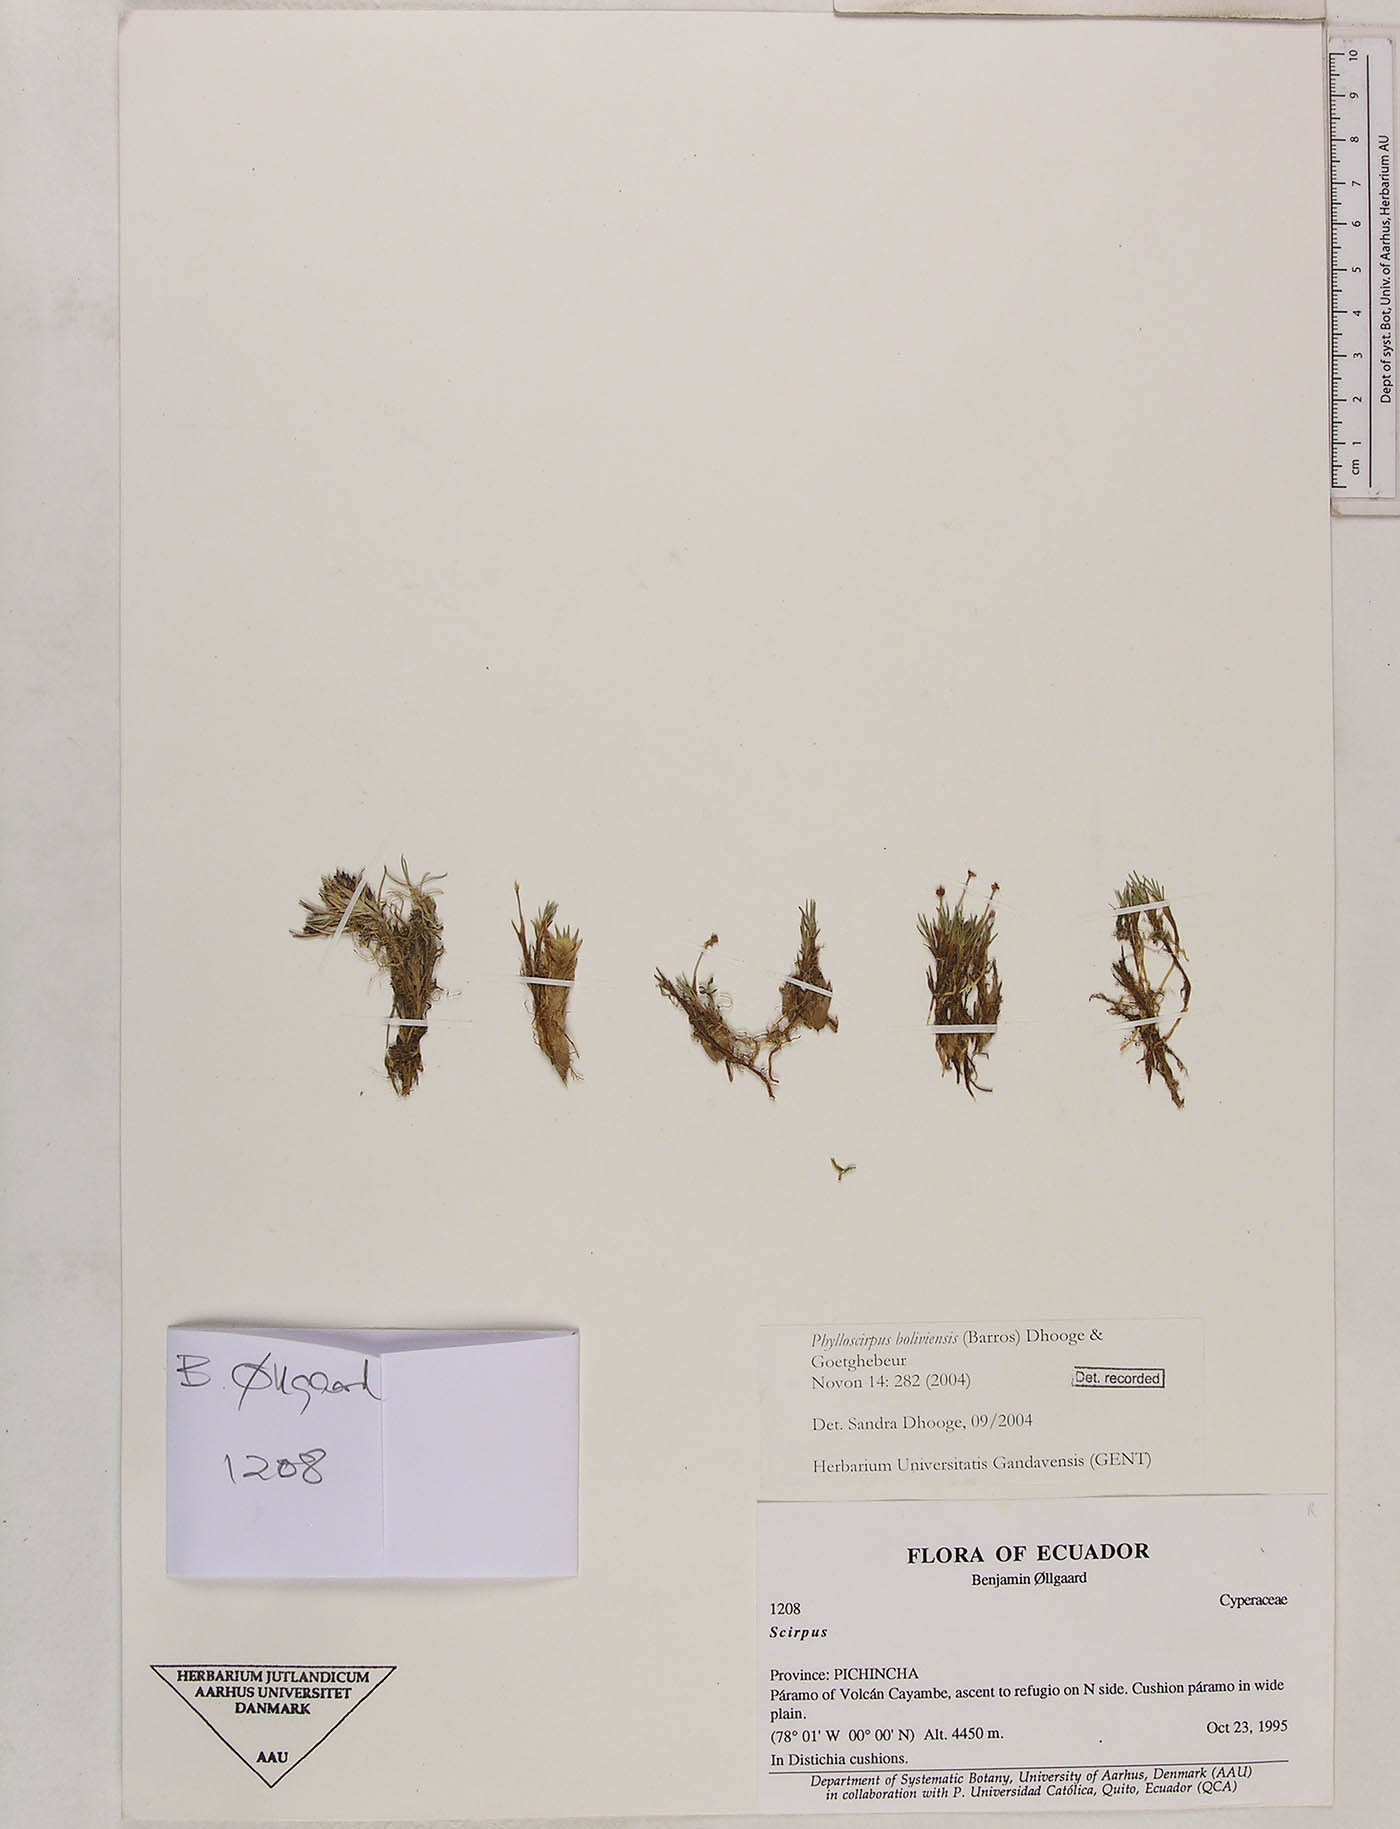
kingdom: Plantae
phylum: Tracheophyta
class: Liliopsida
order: Poales
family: Cyperaceae
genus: Phylloscirpus
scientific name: Phylloscirpus boliviensis
